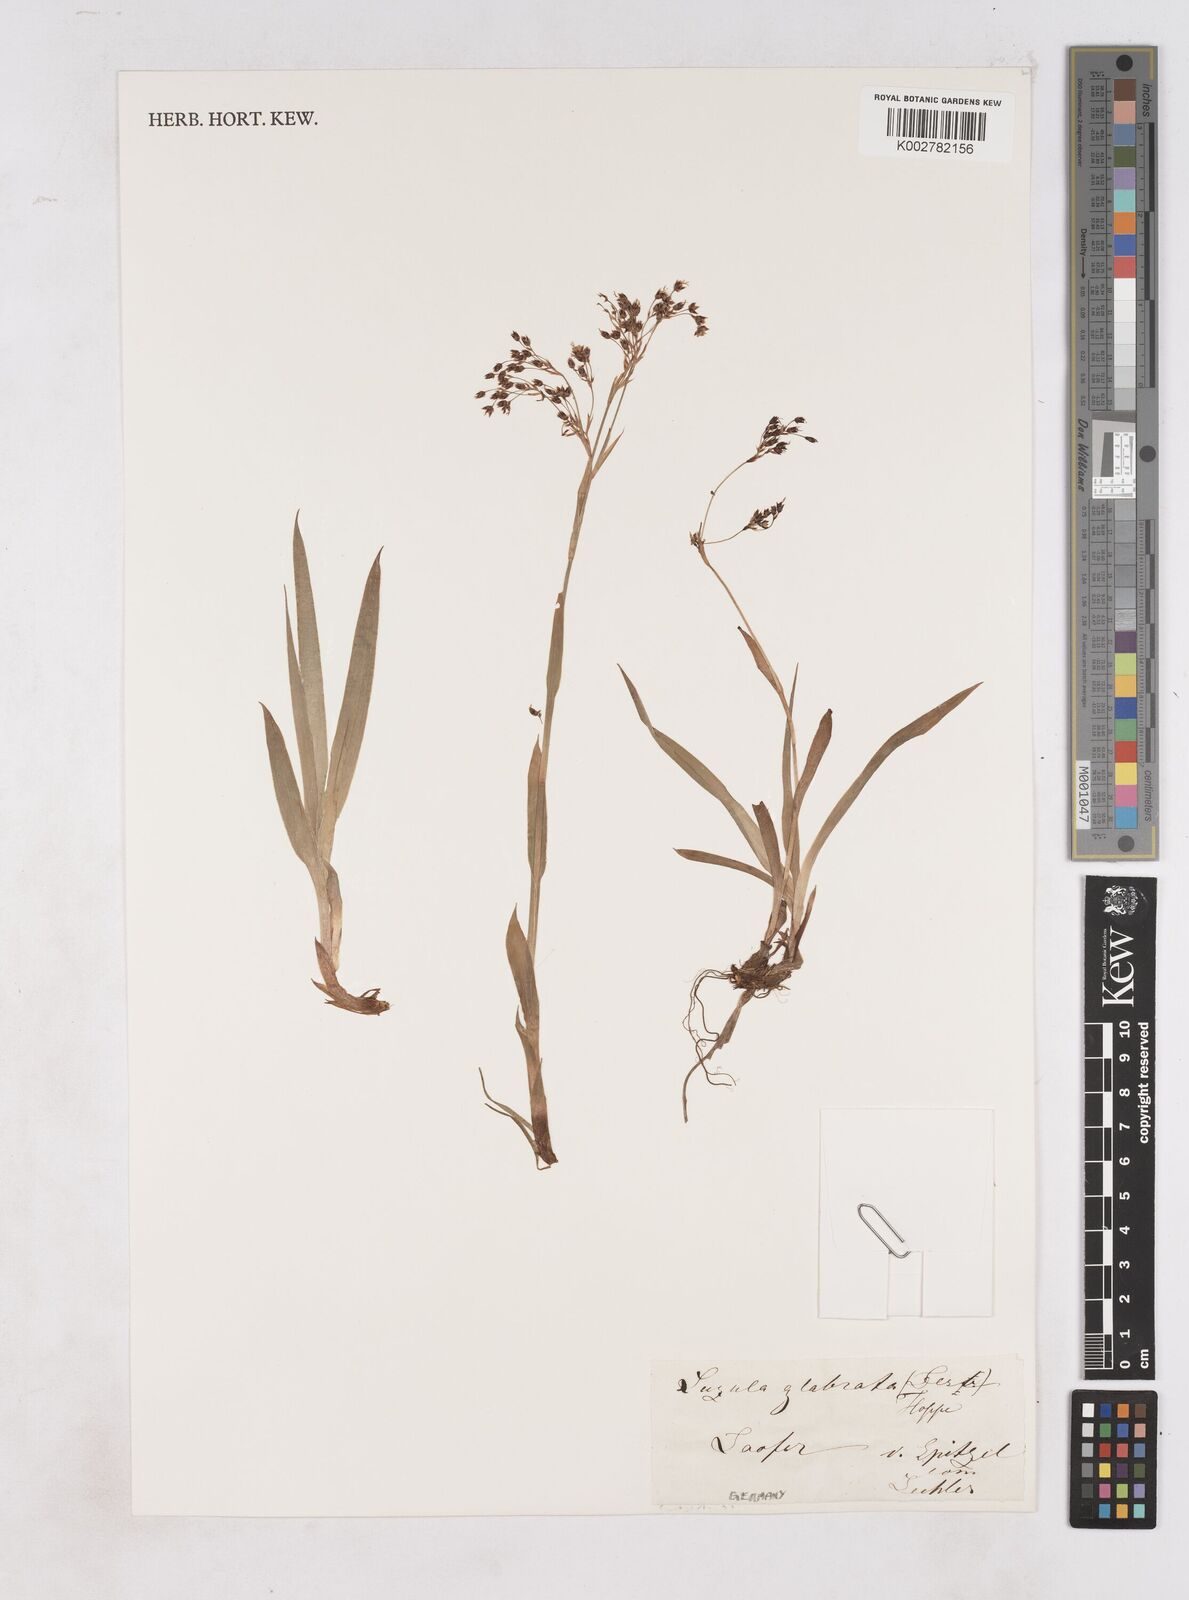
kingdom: Plantae
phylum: Tracheophyta
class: Liliopsida
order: Poales
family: Juncaceae
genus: Luzula
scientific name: Luzula glabrata
